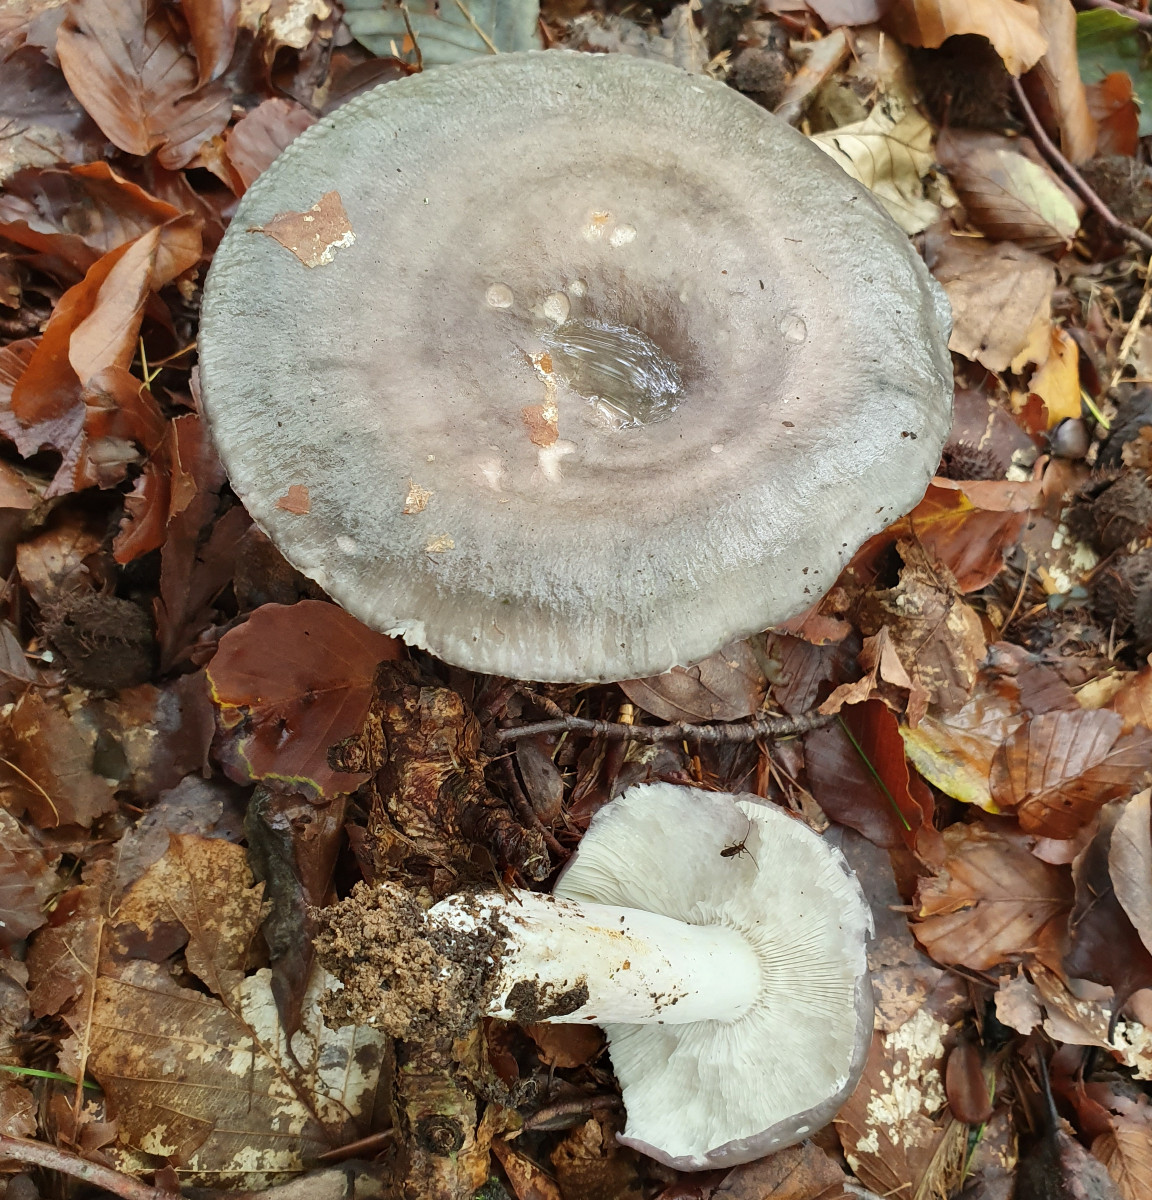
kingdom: Fungi
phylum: Basidiomycota
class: Agaricomycetes
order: Russulales
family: Russulaceae
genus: Russula
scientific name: Russula
